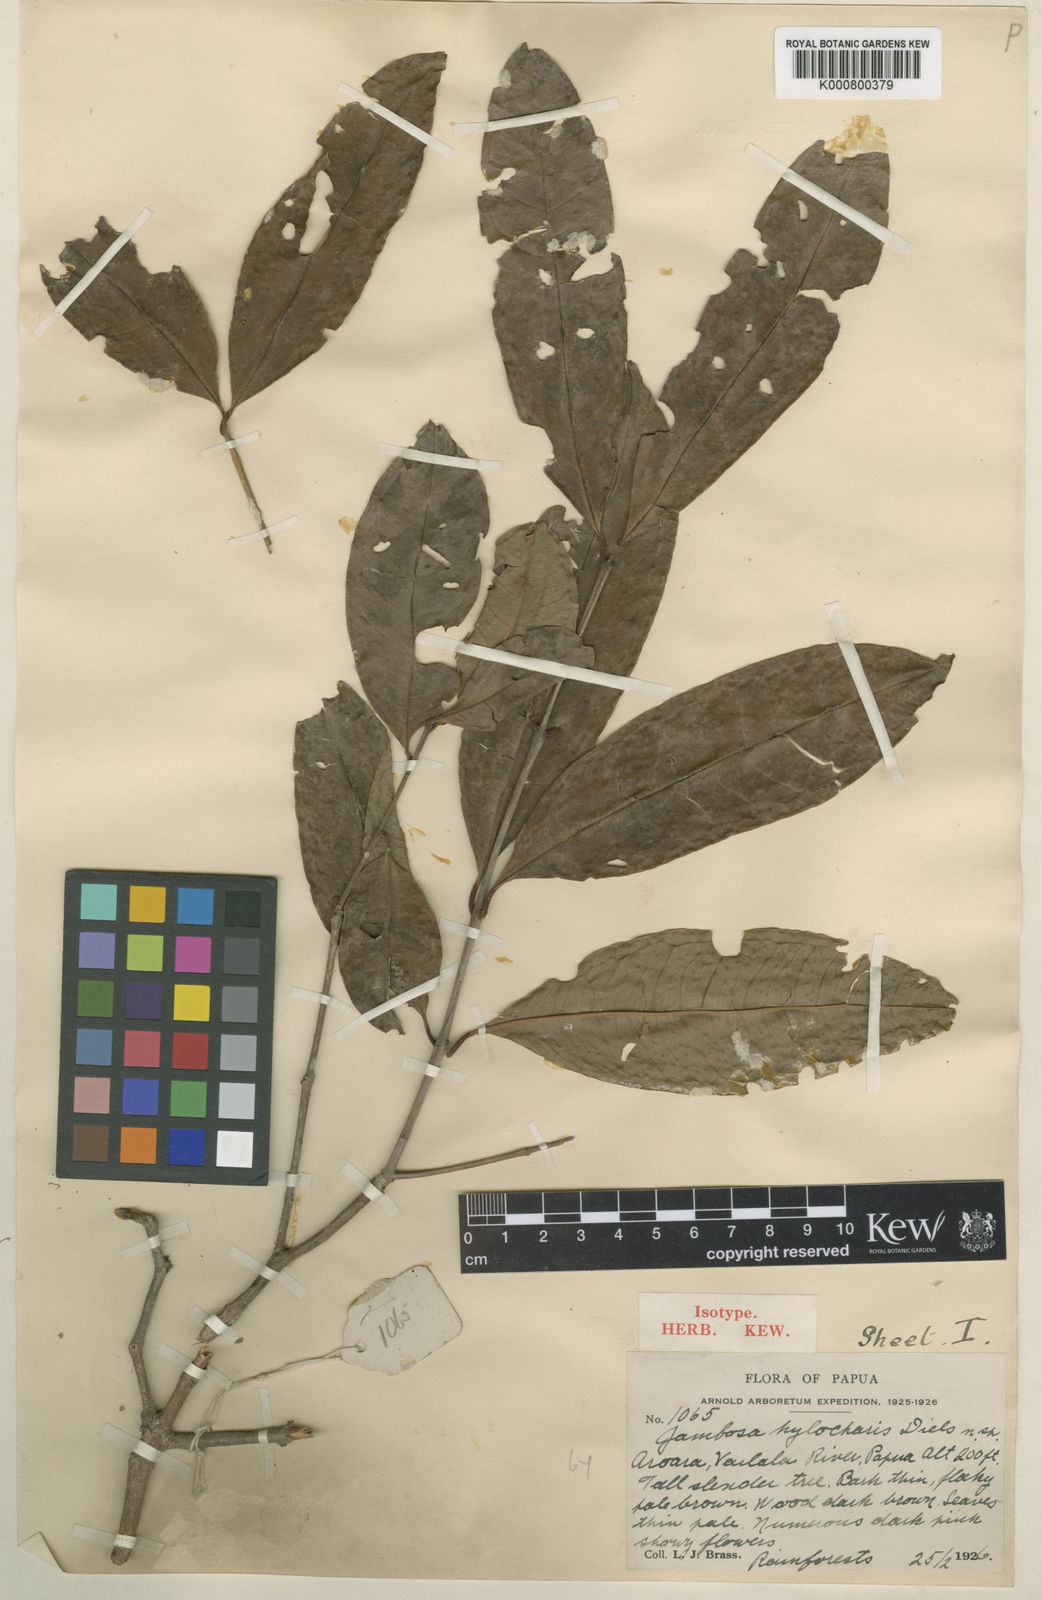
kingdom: Plantae
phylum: Tracheophyta
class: Magnoliopsida
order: Myrtales
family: Myrtaceae
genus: Syzygium
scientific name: Syzygium hylochare
